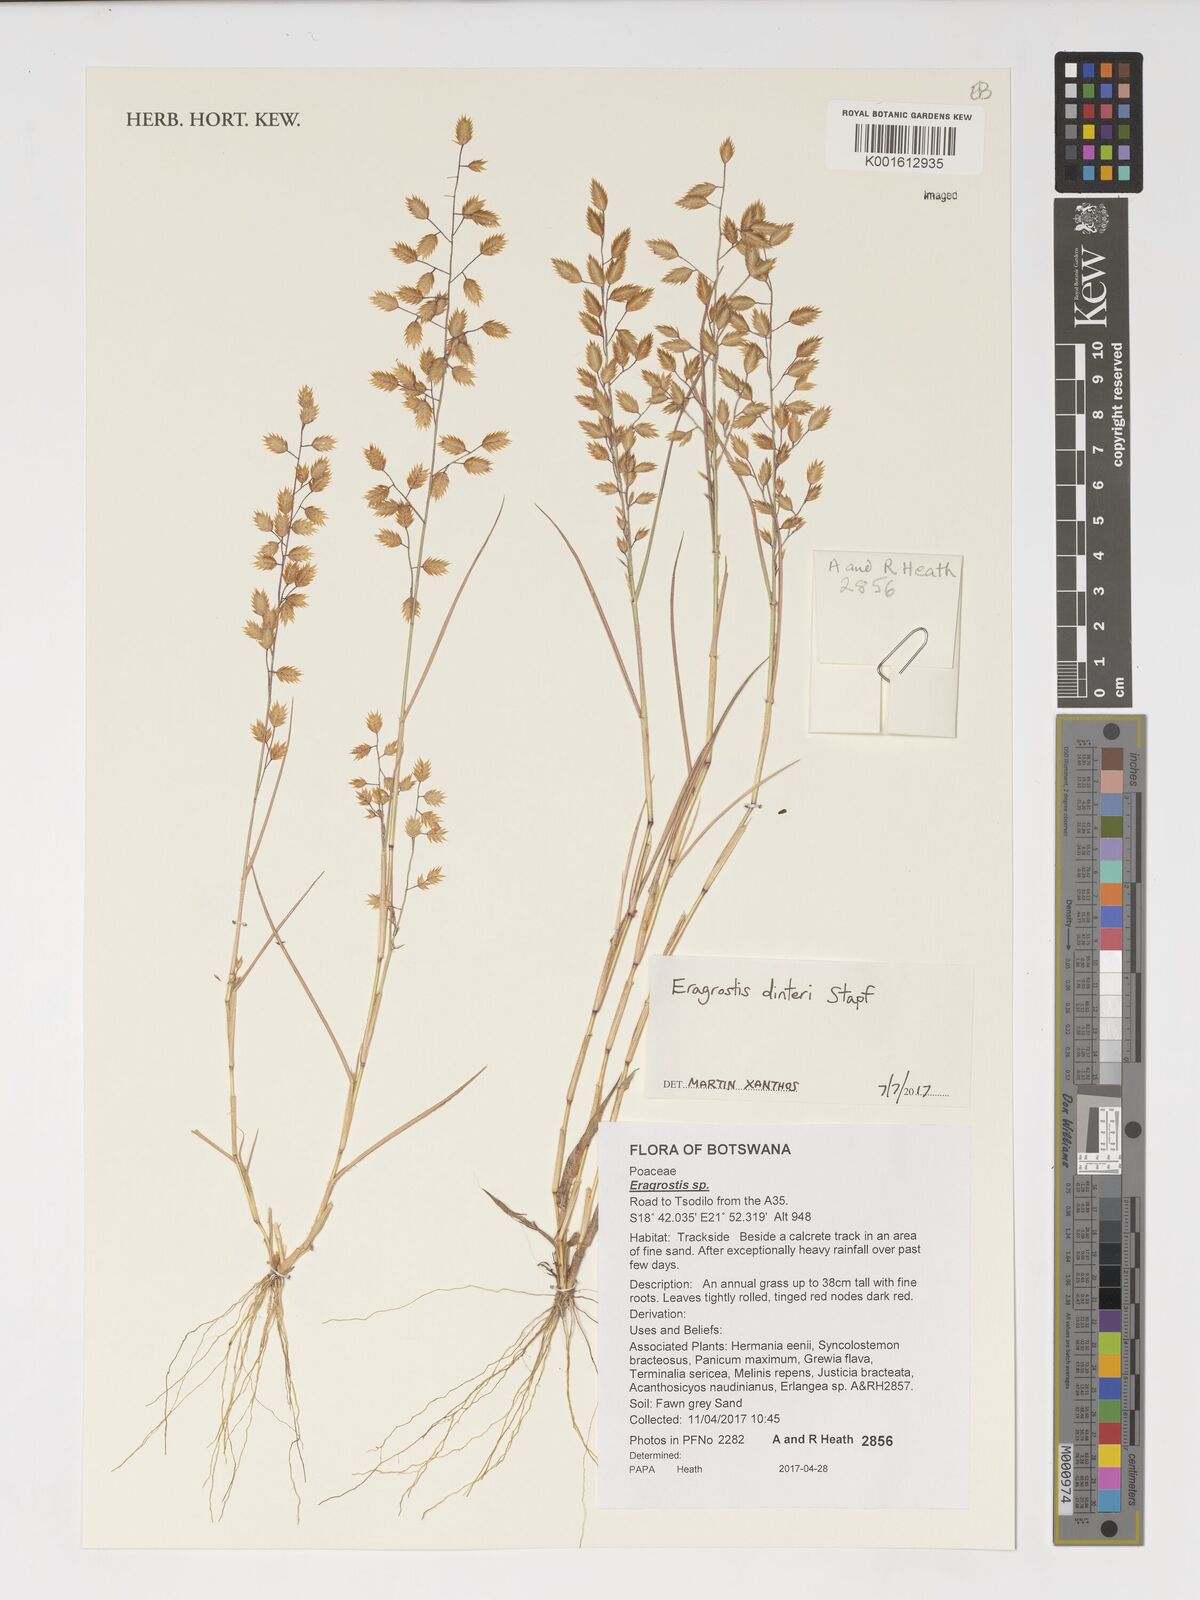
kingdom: Plantae
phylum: Tracheophyta
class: Liliopsida
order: Poales
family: Poaceae
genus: Eragrostis
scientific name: Eragrostis dinteri
